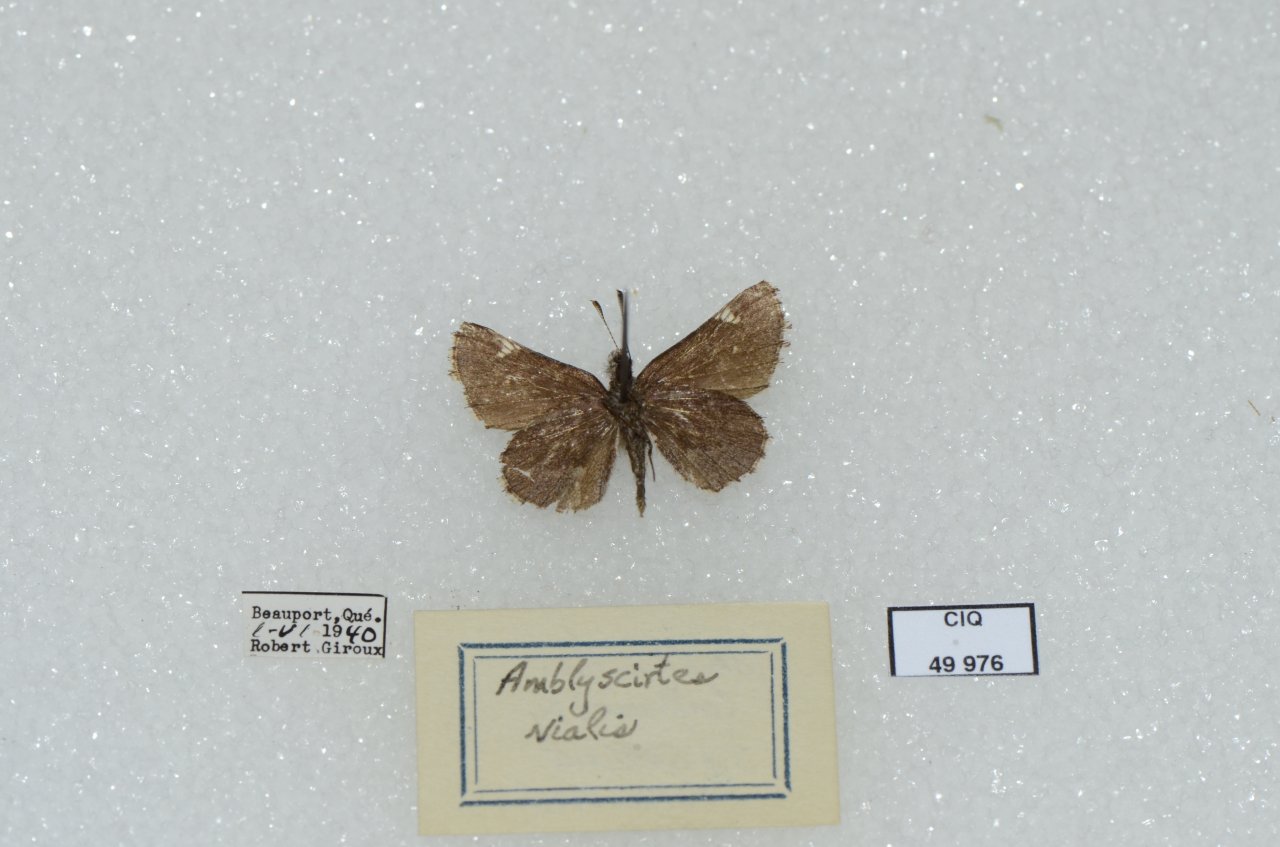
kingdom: Animalia
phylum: Arthropoda
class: Insecta
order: Lepidoptera
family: Hesperiidae
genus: Mastor
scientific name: Mastor vialis
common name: Common Roadside-Skipper
